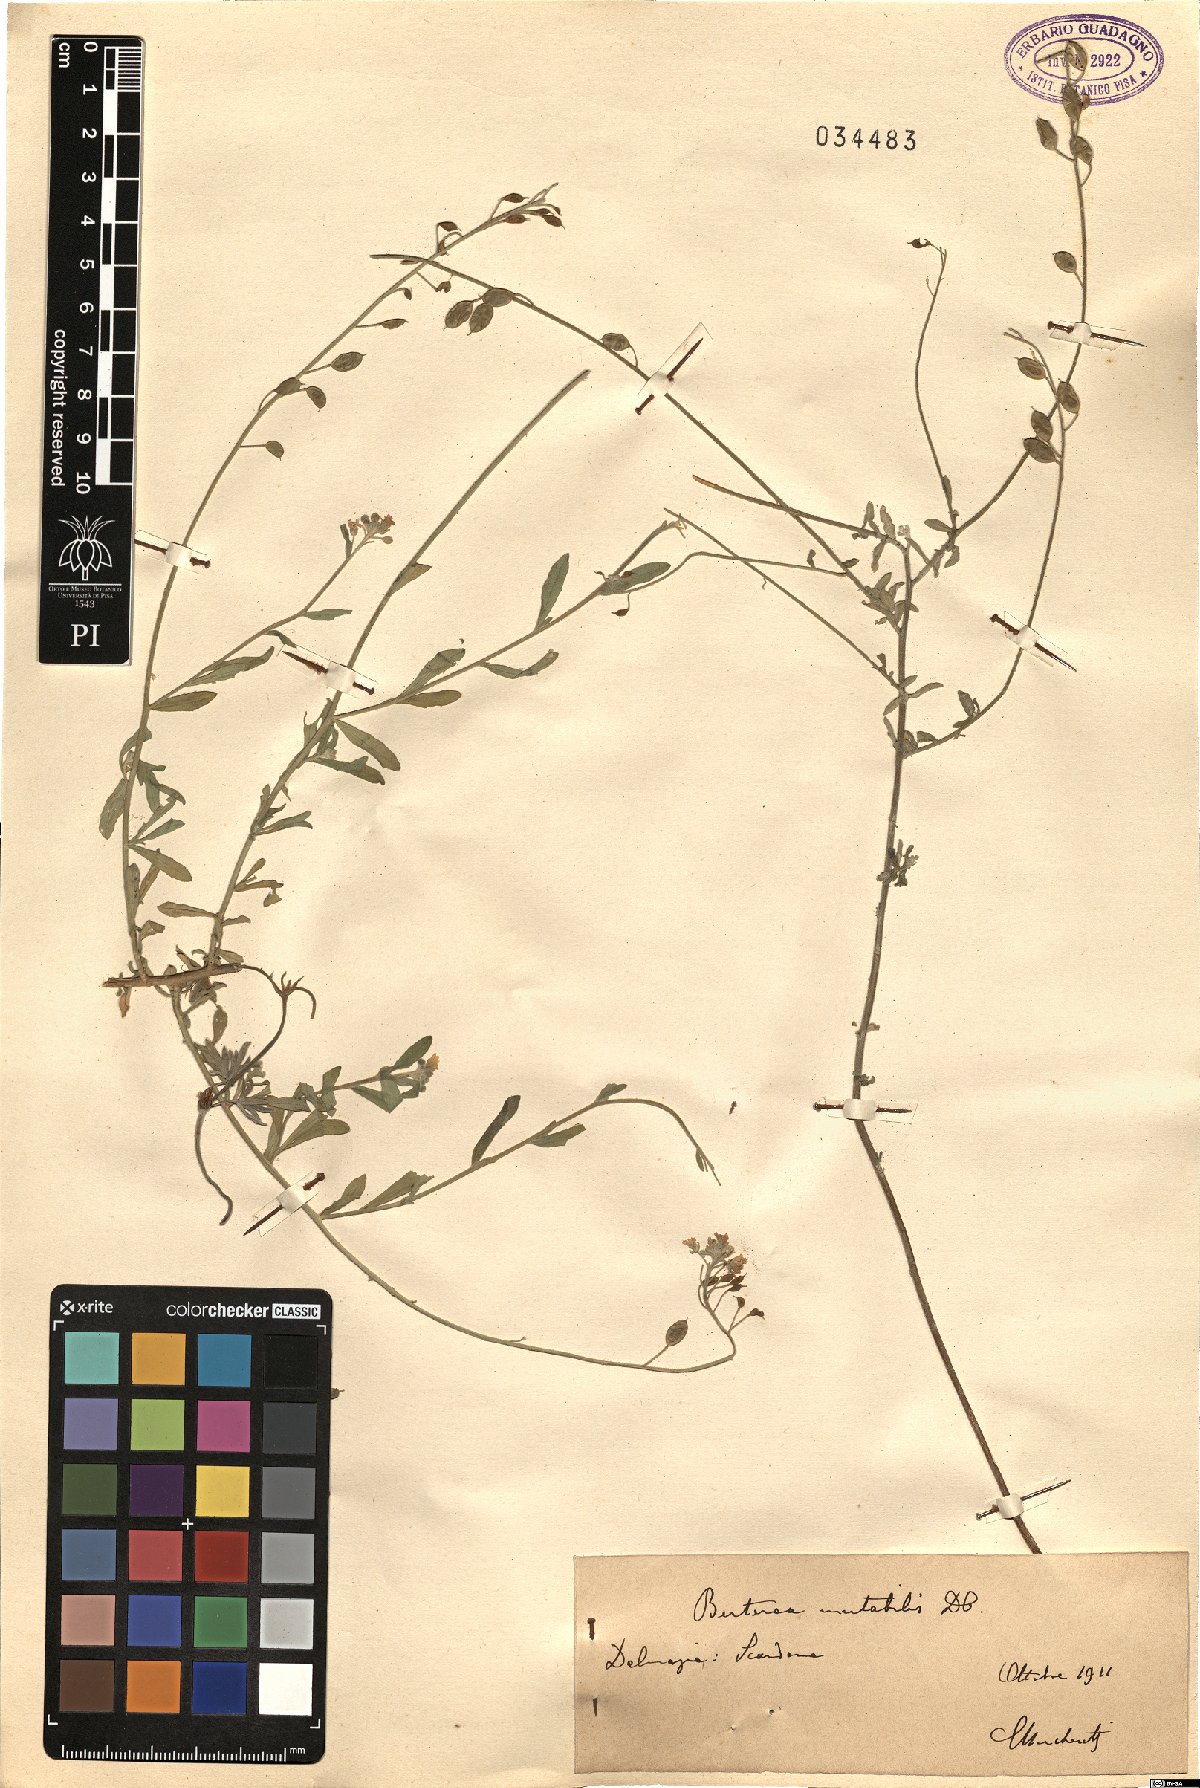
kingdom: Plantae
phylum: Tracheophyta
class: Magnoliopsida
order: Brassicales
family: Brassicaceae
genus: Berteroa
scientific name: Berteroa mutabilis
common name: Roadside false madwort
